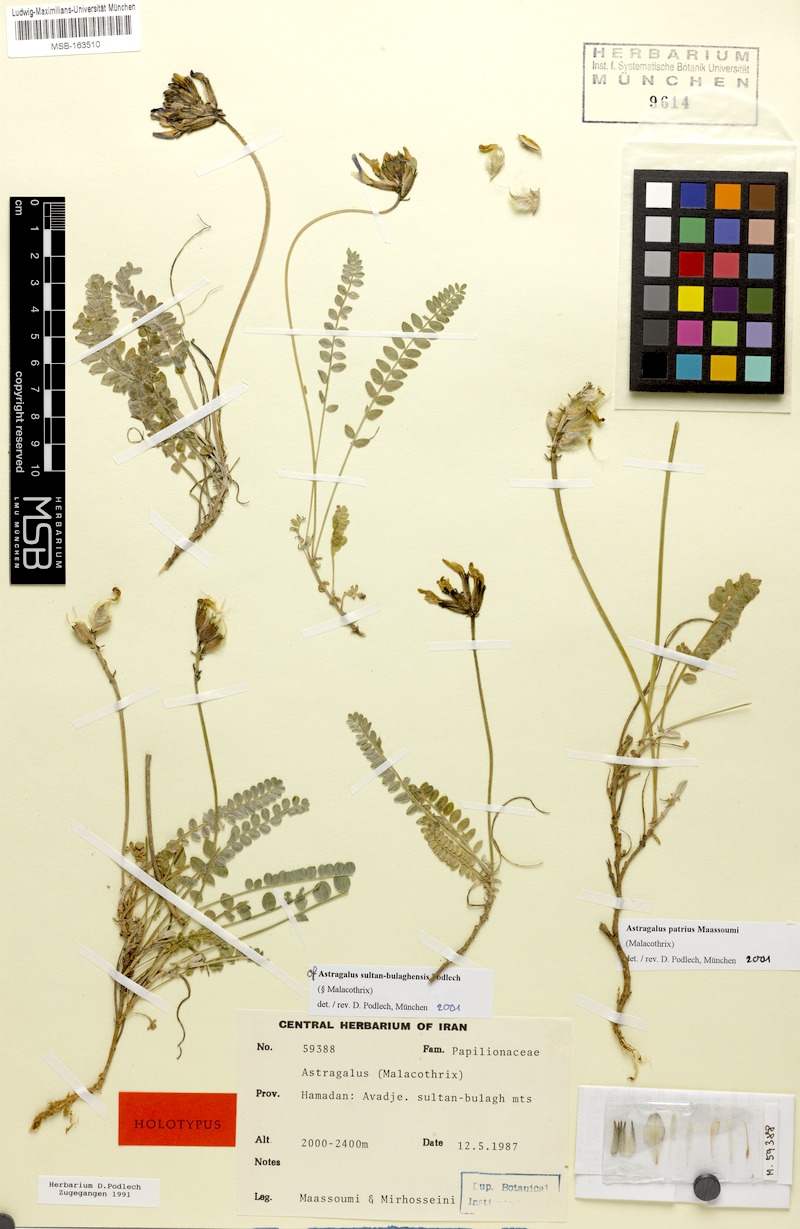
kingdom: Plantae
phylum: Tracheophyta
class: Magnoliopsida
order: Fabales
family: Fabaceae
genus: Astragalus
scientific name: Astragalus patrius
